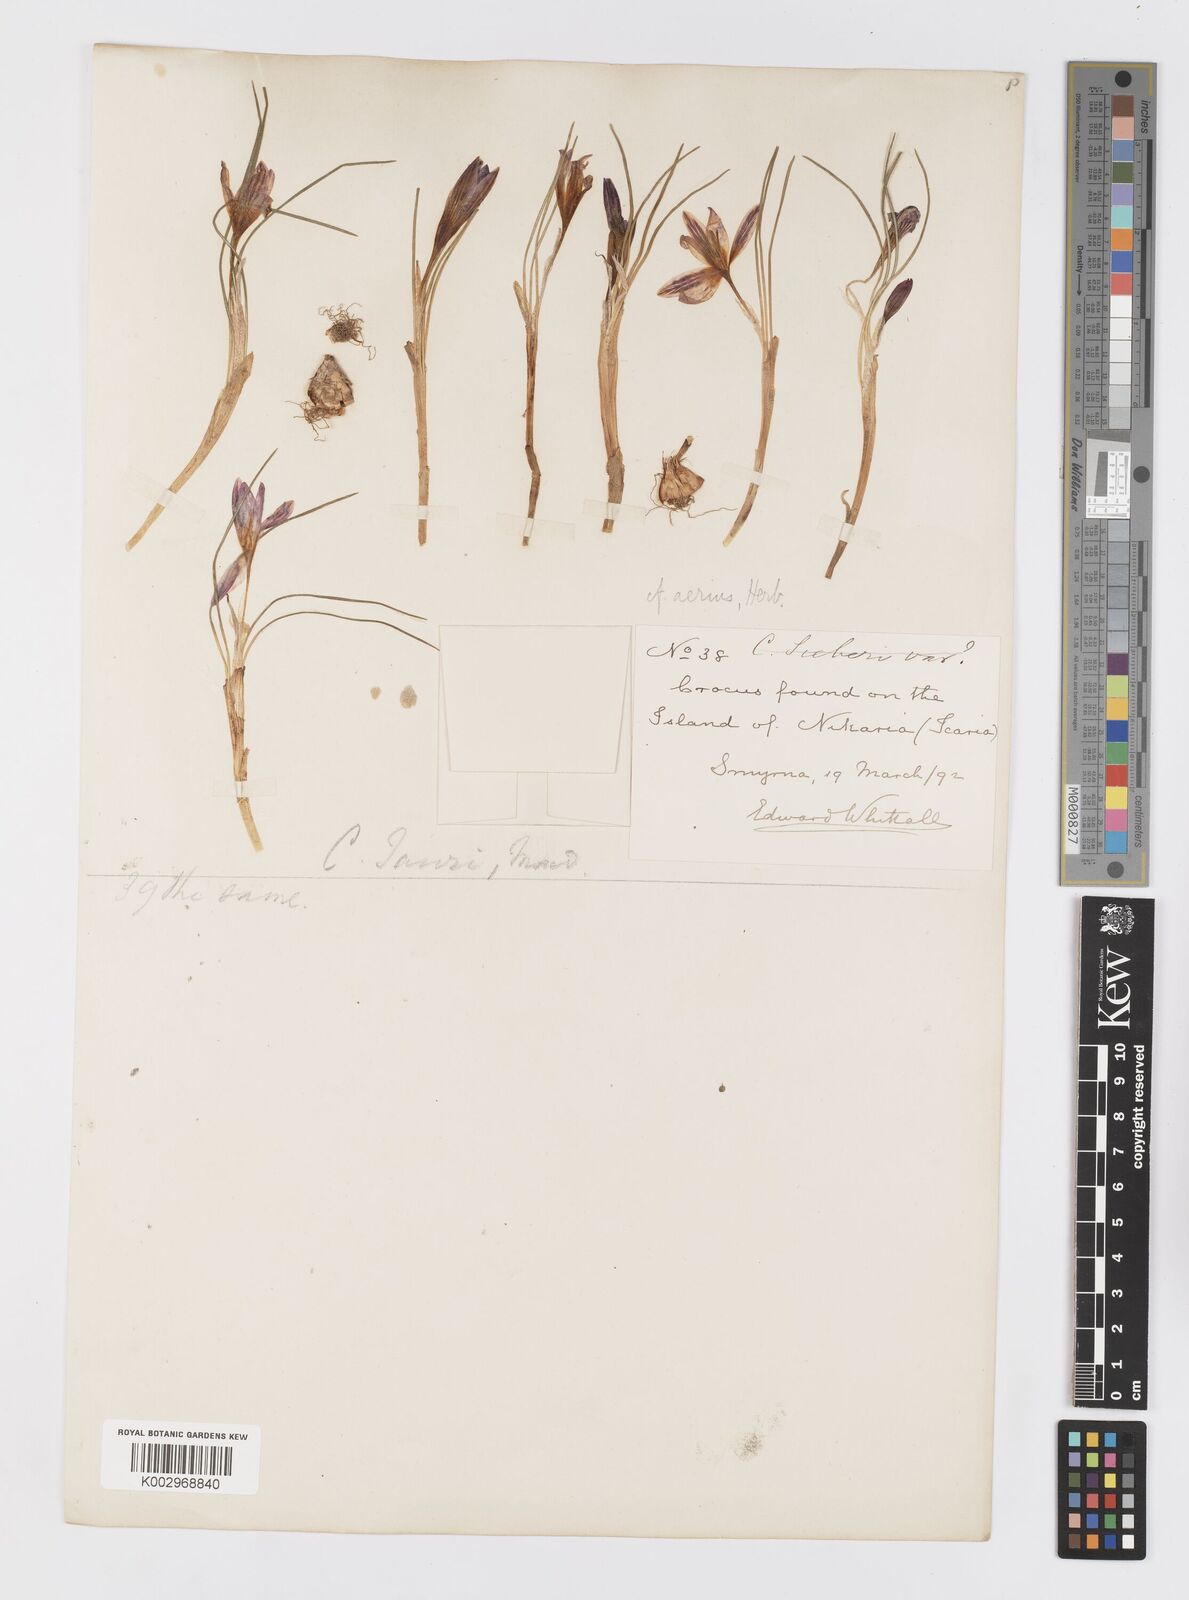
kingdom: Plantae
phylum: Tracheophyta
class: Liliopsida
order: Asparagales
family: Iridaceae
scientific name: Iridaceae
